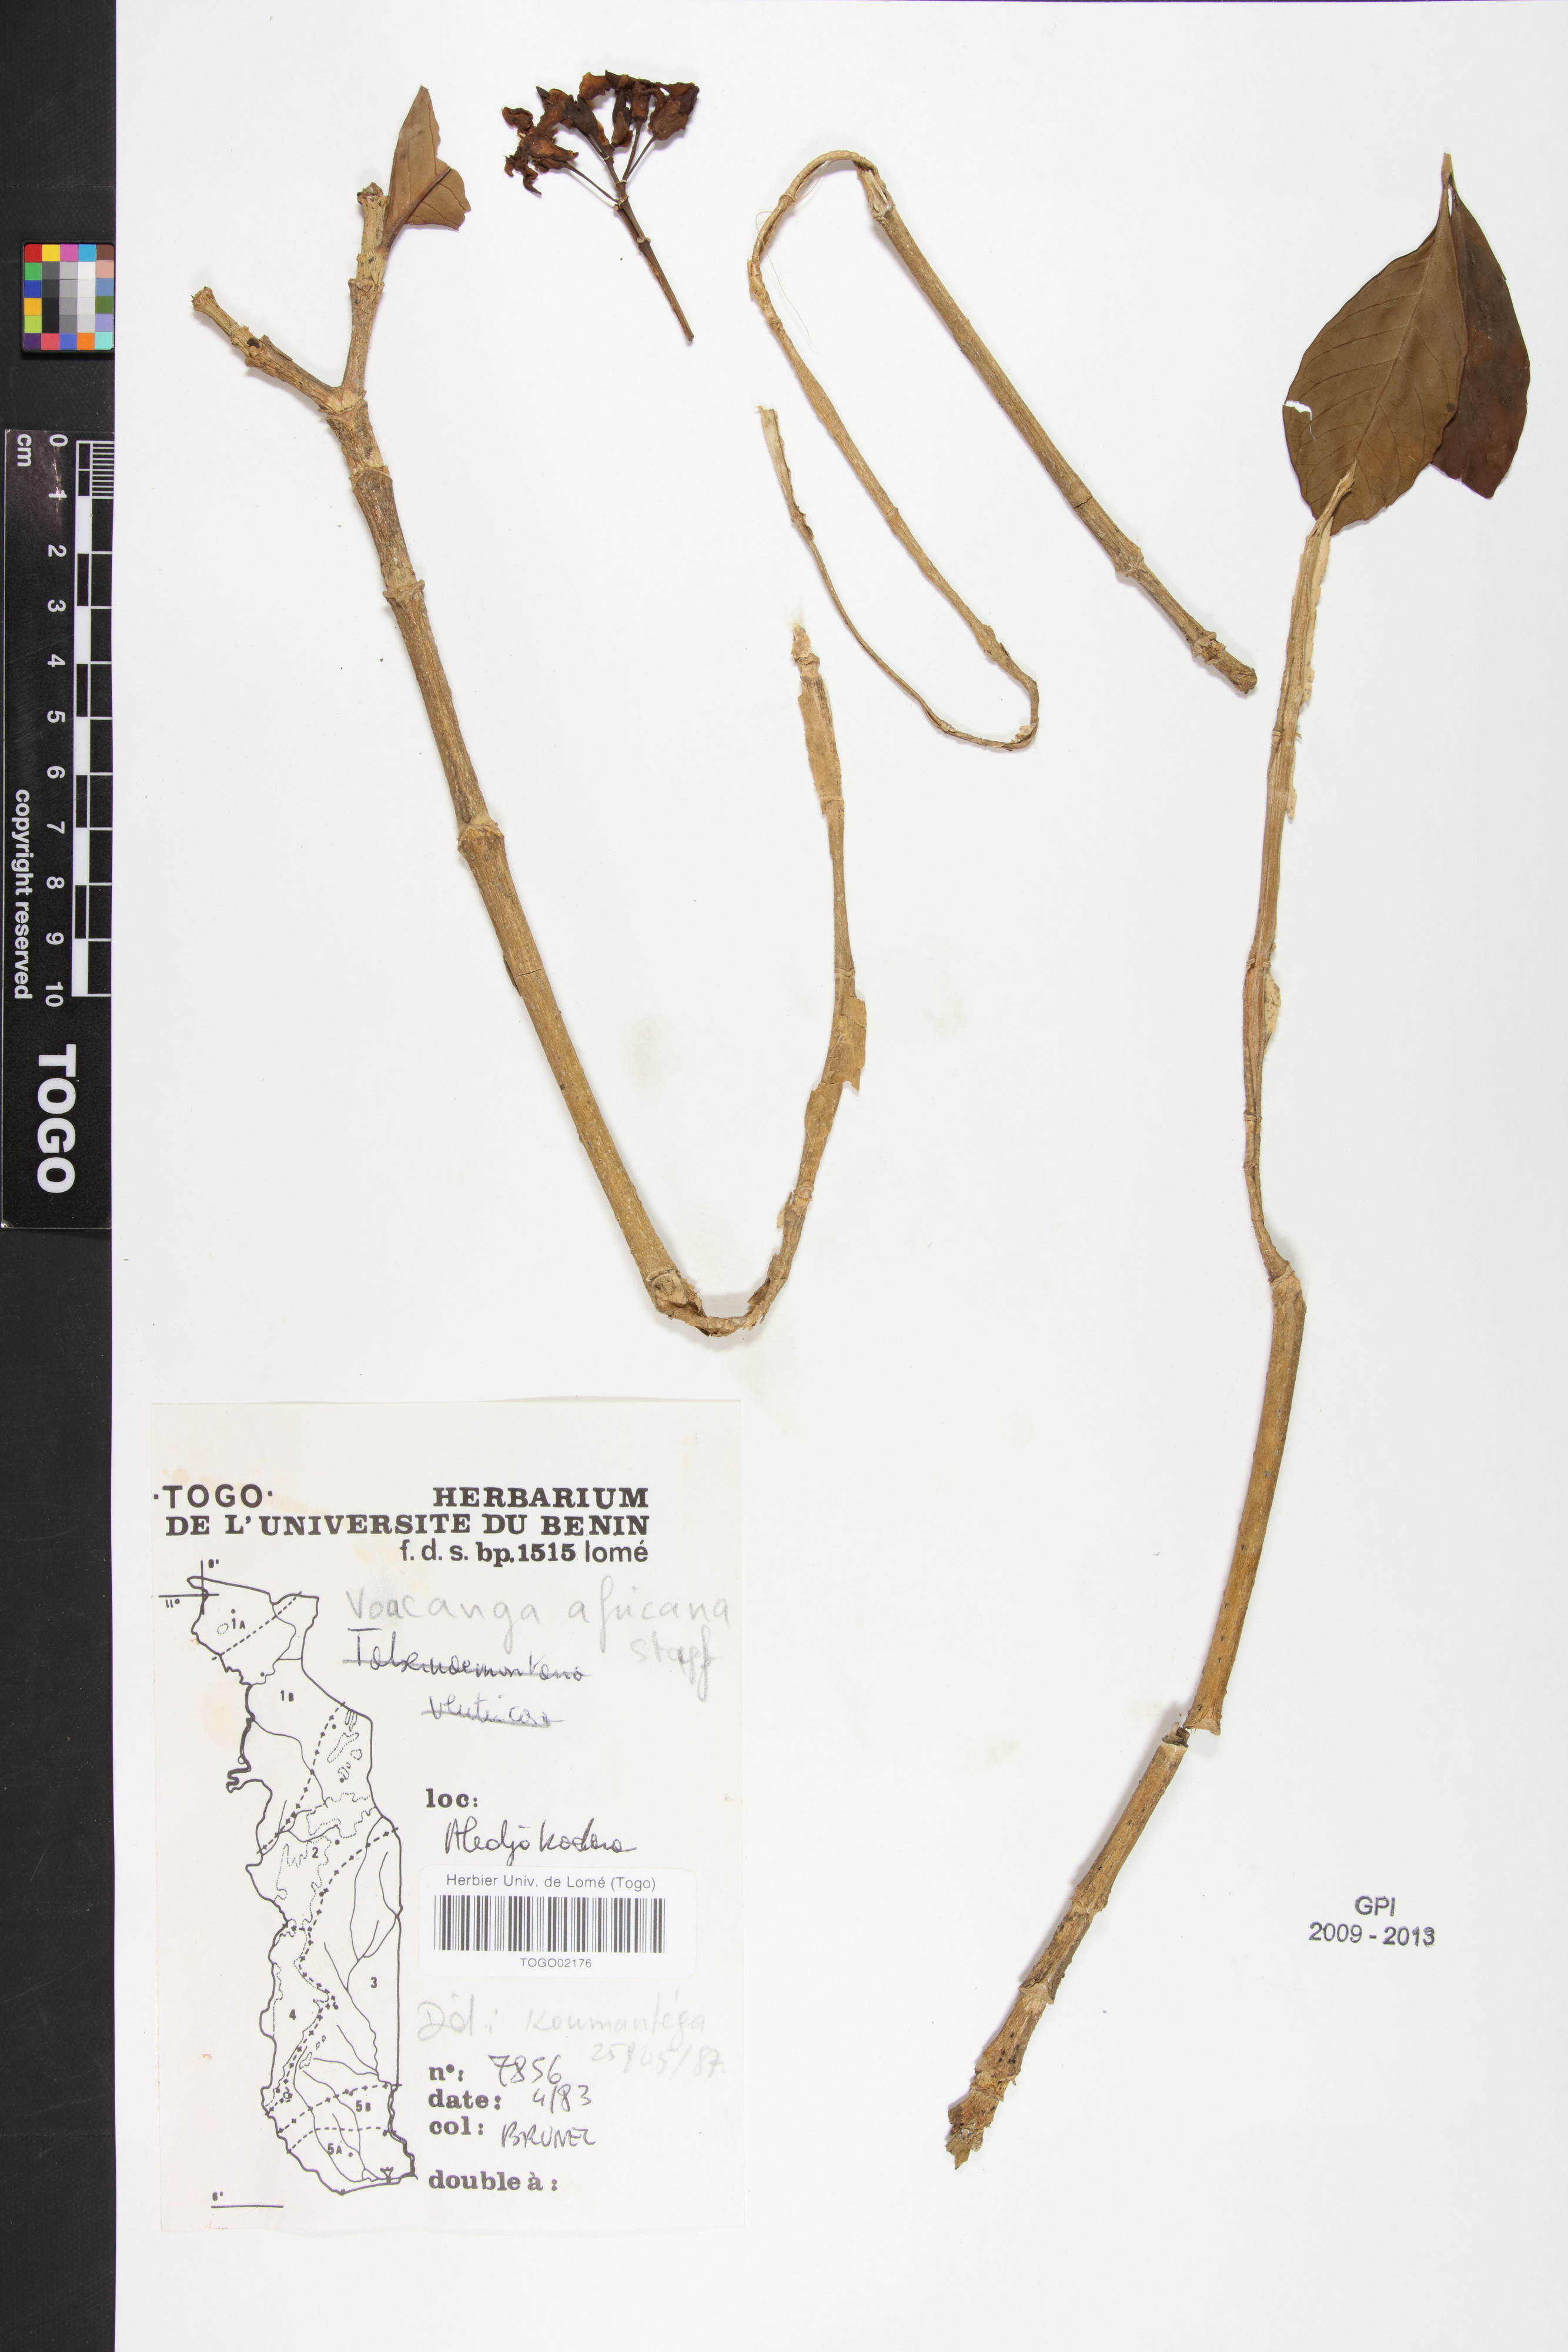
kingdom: Plantae
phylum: Tracheophyta
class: Magnoliopsida
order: Gentianales
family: Apocynaceae
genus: Voacanga
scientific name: Voacanga africana
